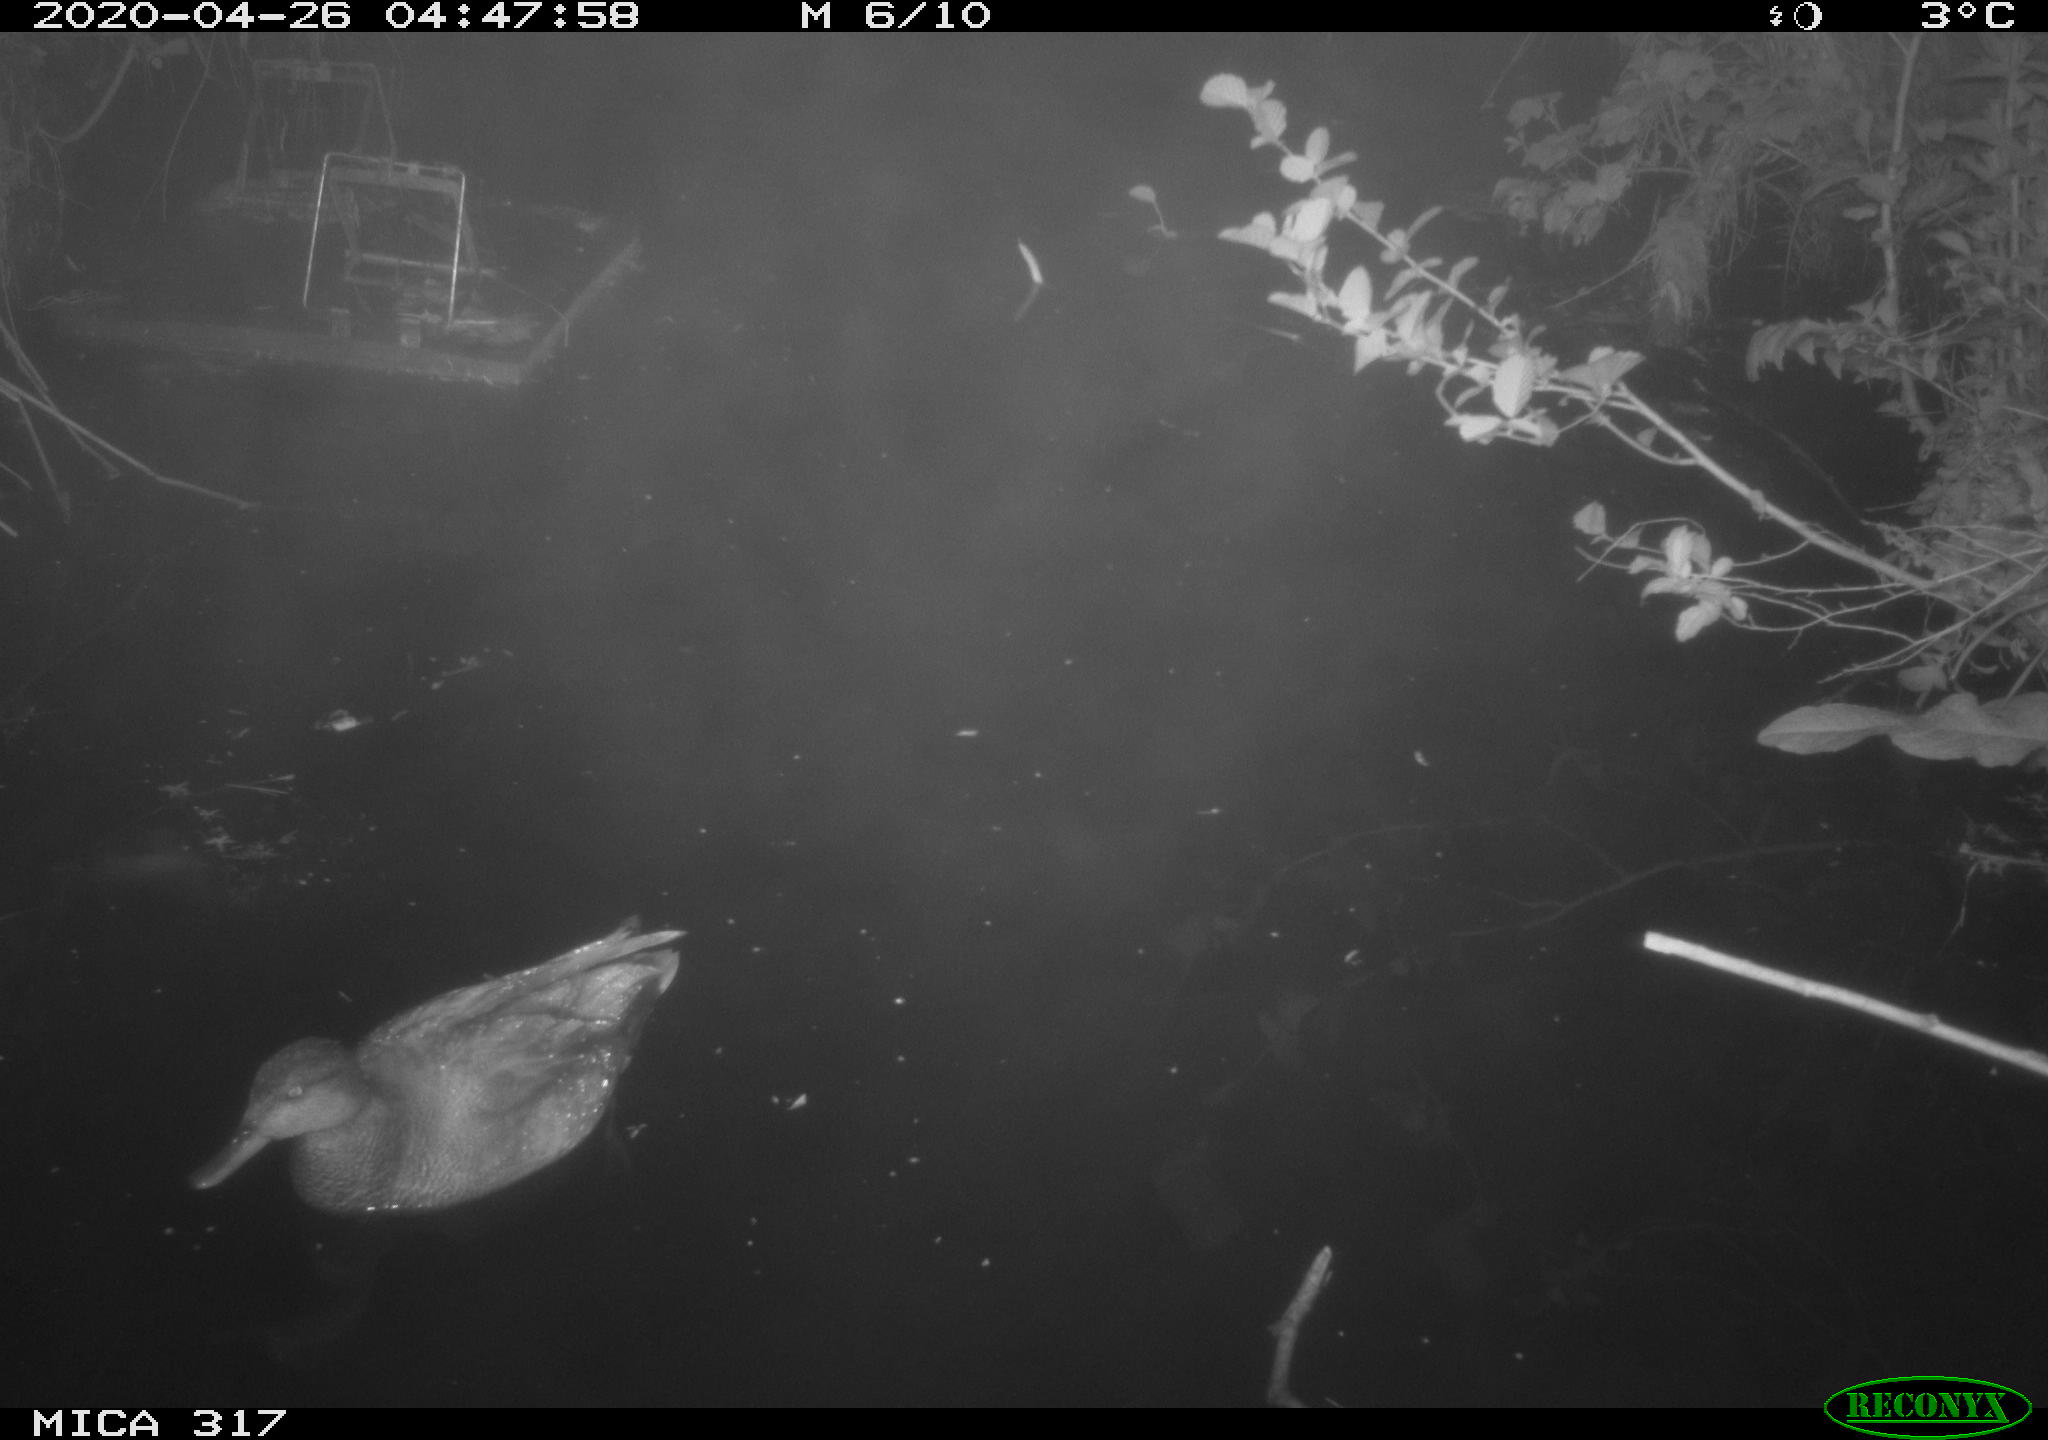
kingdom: Animalia
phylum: Chordata
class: Aves
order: Anseriformes
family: Anatidae
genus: Mareca
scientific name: Mareca strepera
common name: Gadwall
